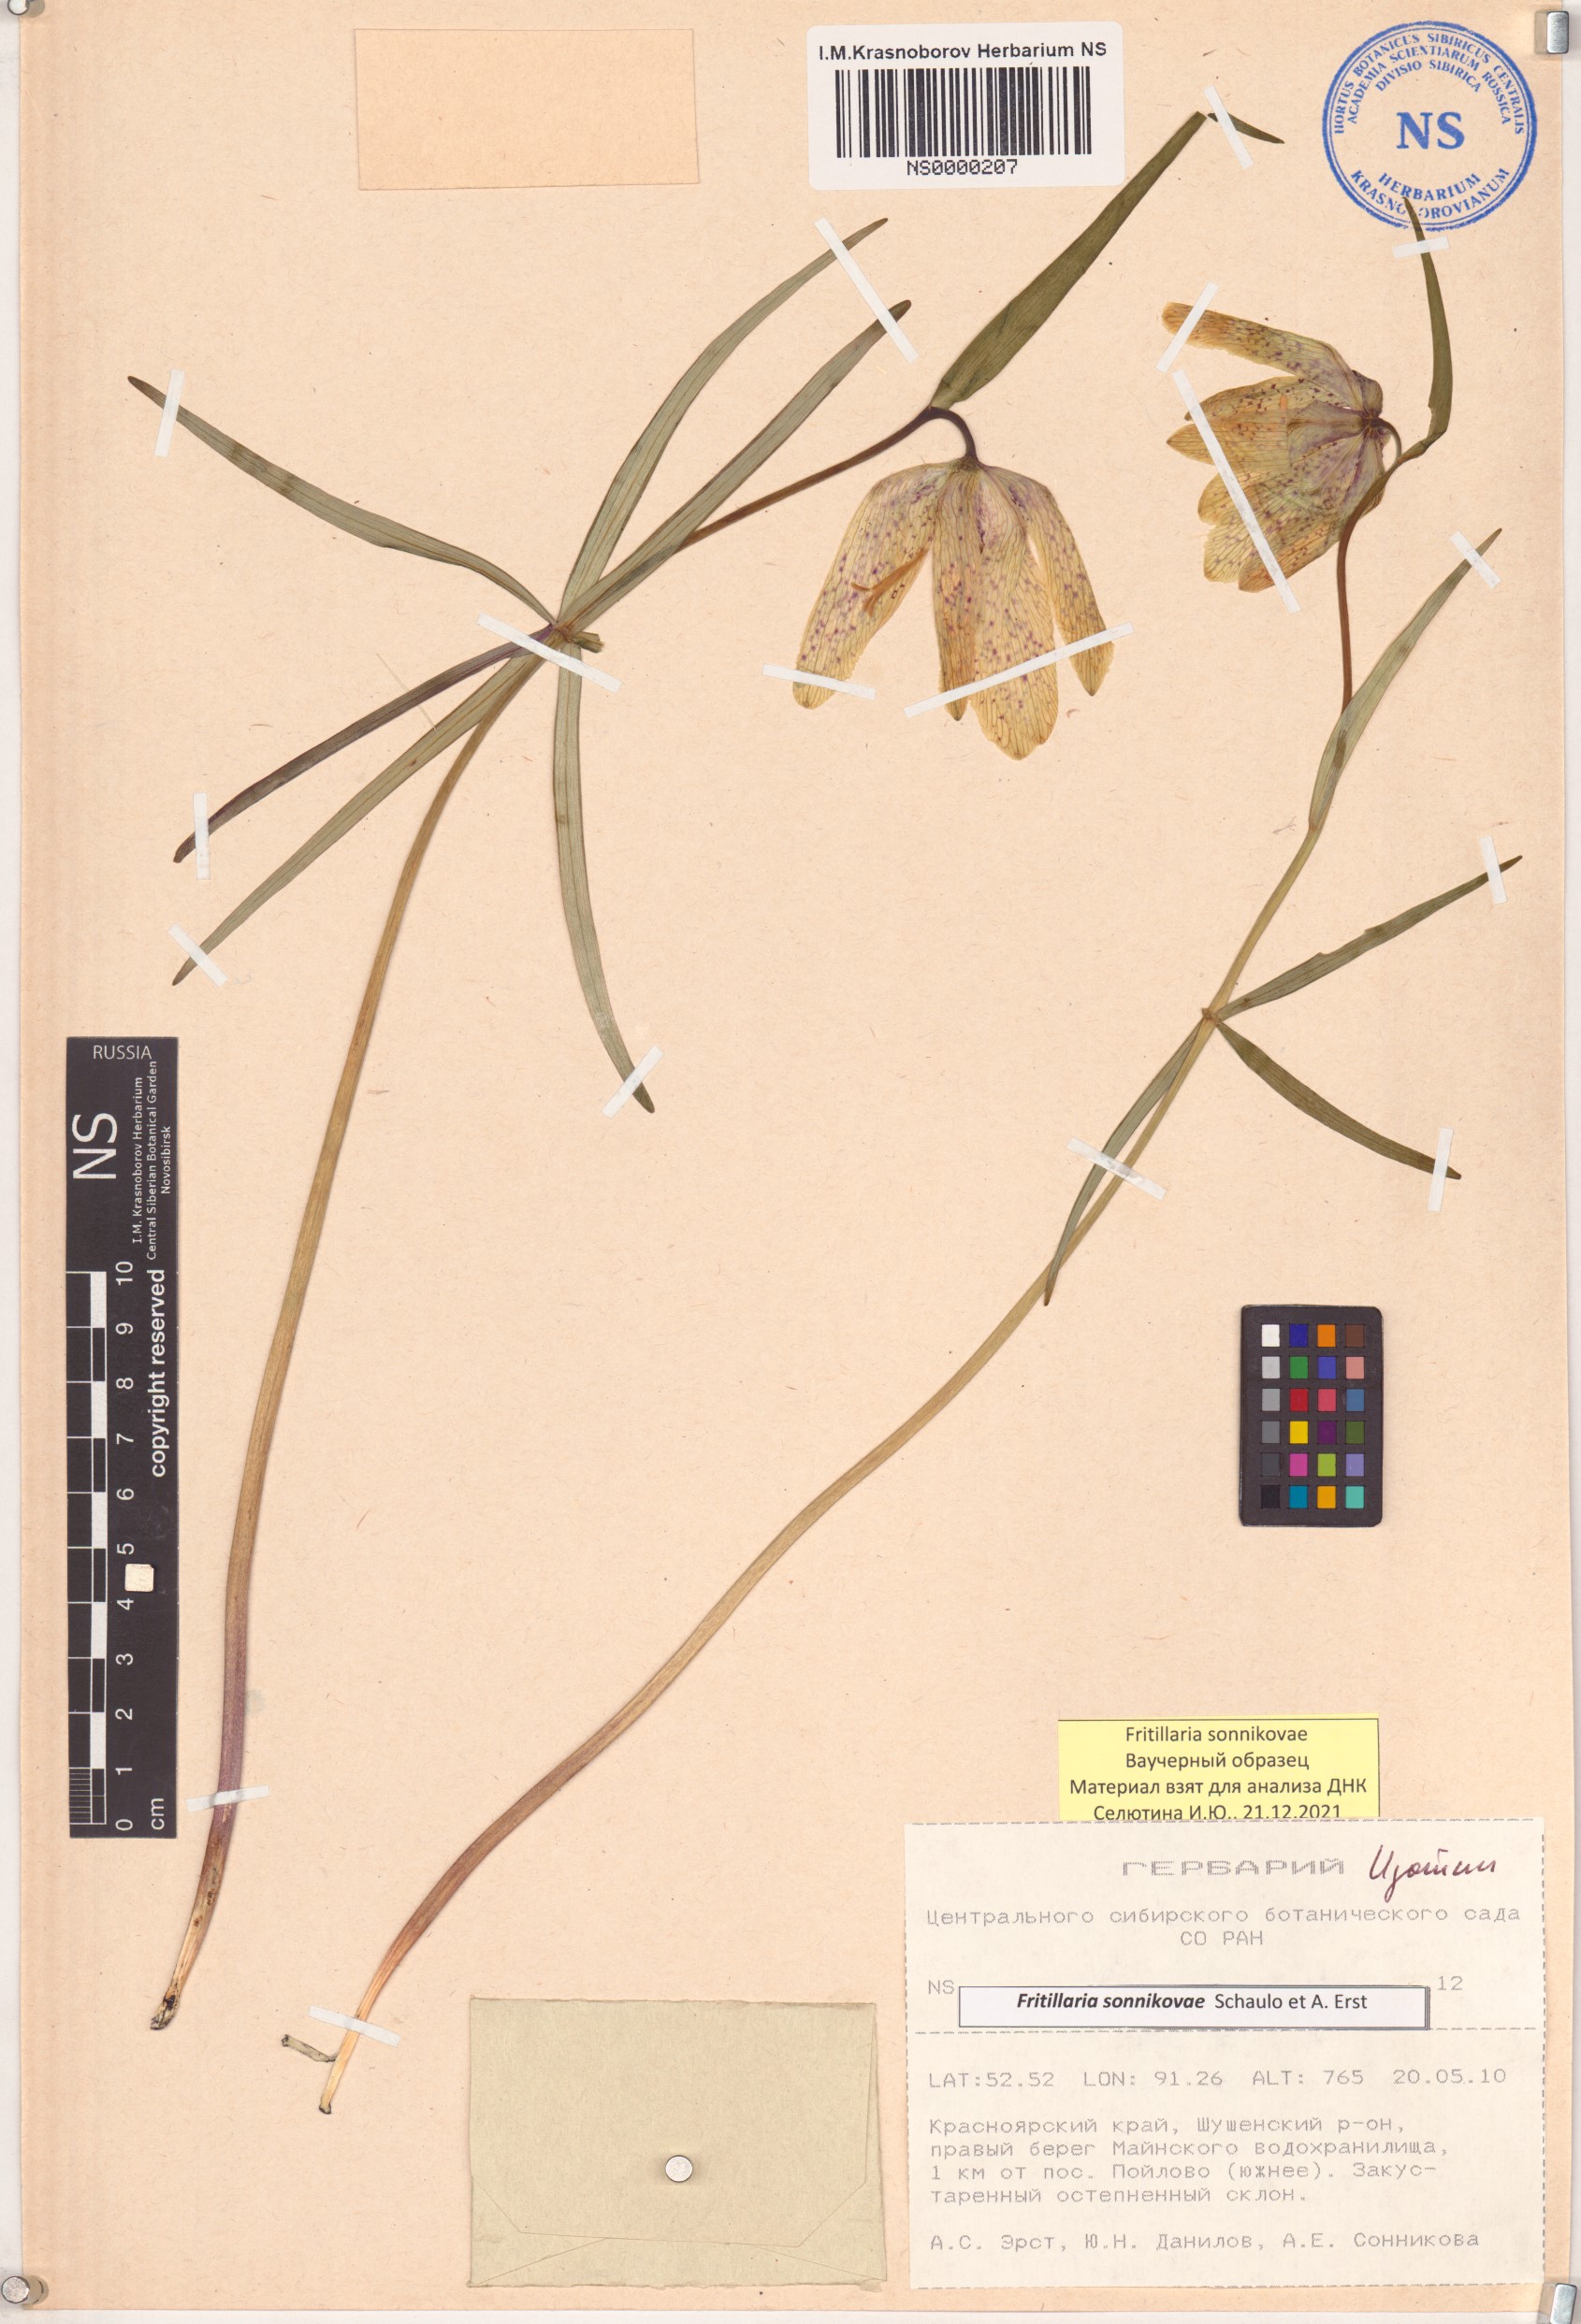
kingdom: Plantae
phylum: Tracheophyta
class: Liliopsida
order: Liliales
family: Liliaceae
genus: Fritillaria
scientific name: Fritillaria sonnikovae
